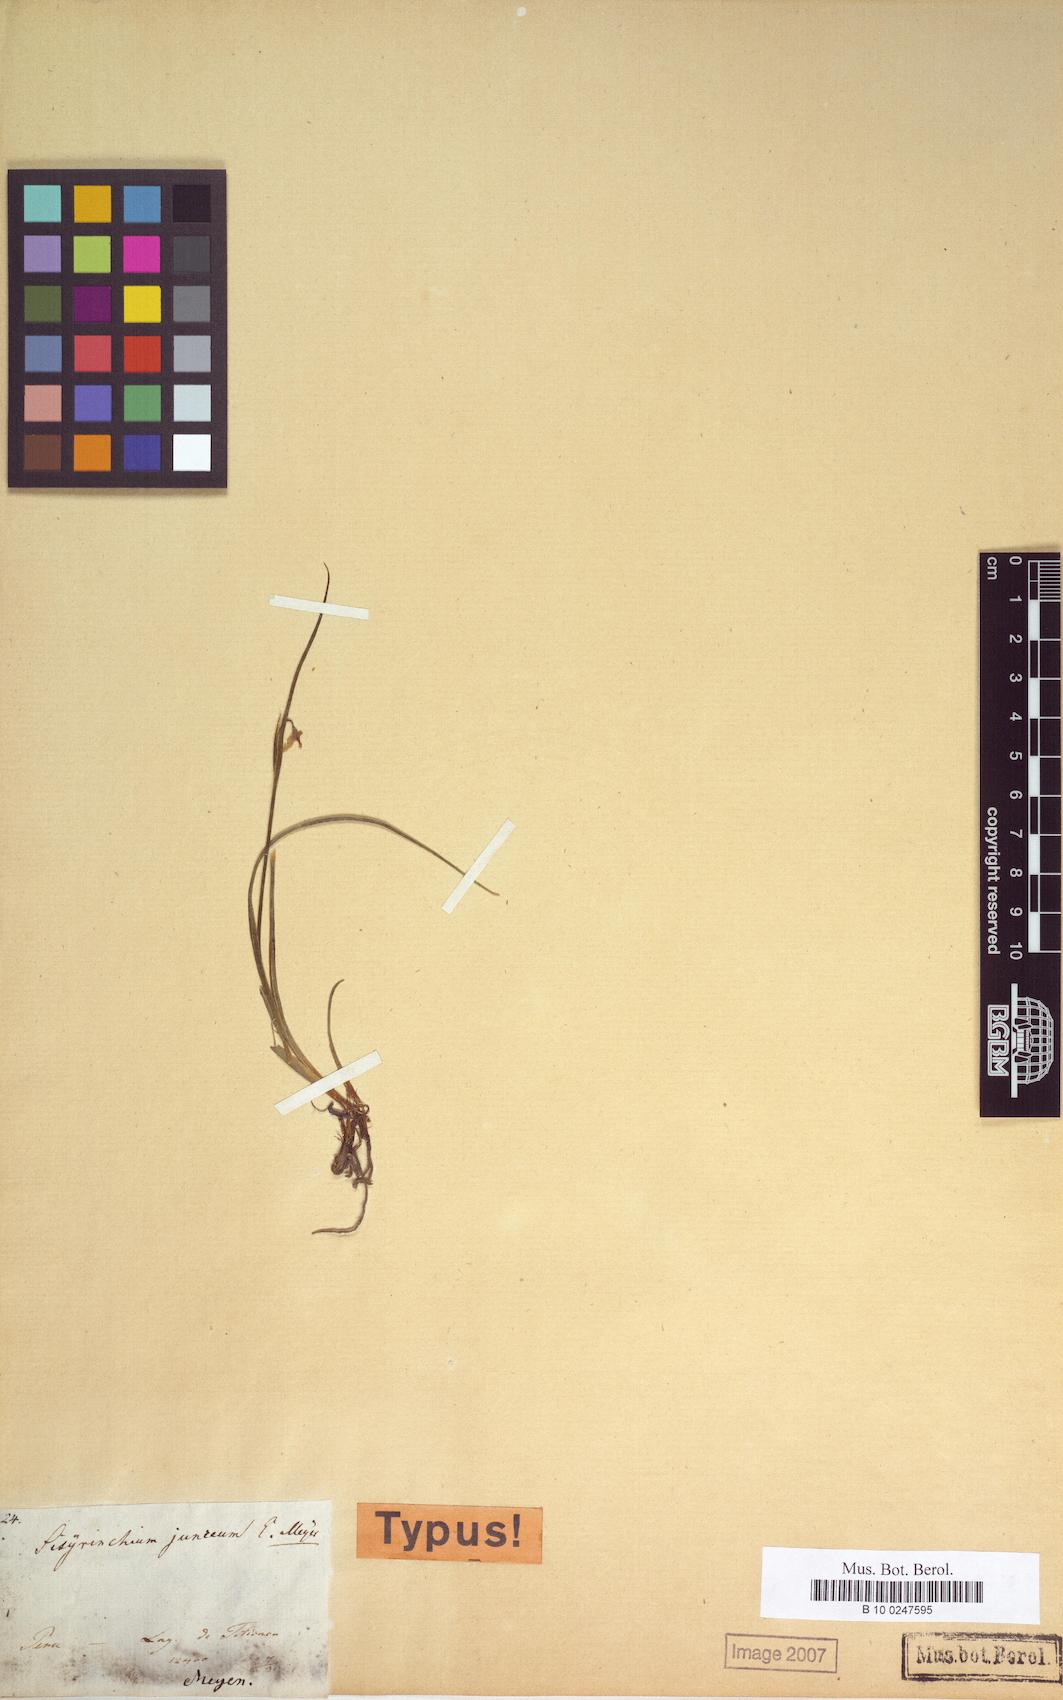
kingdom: Plantae
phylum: Tracheophyta
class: Liliopsida
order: Asparagales
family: Iridaceae
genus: Moraea
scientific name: Moraea Sisyrinchium junceum
